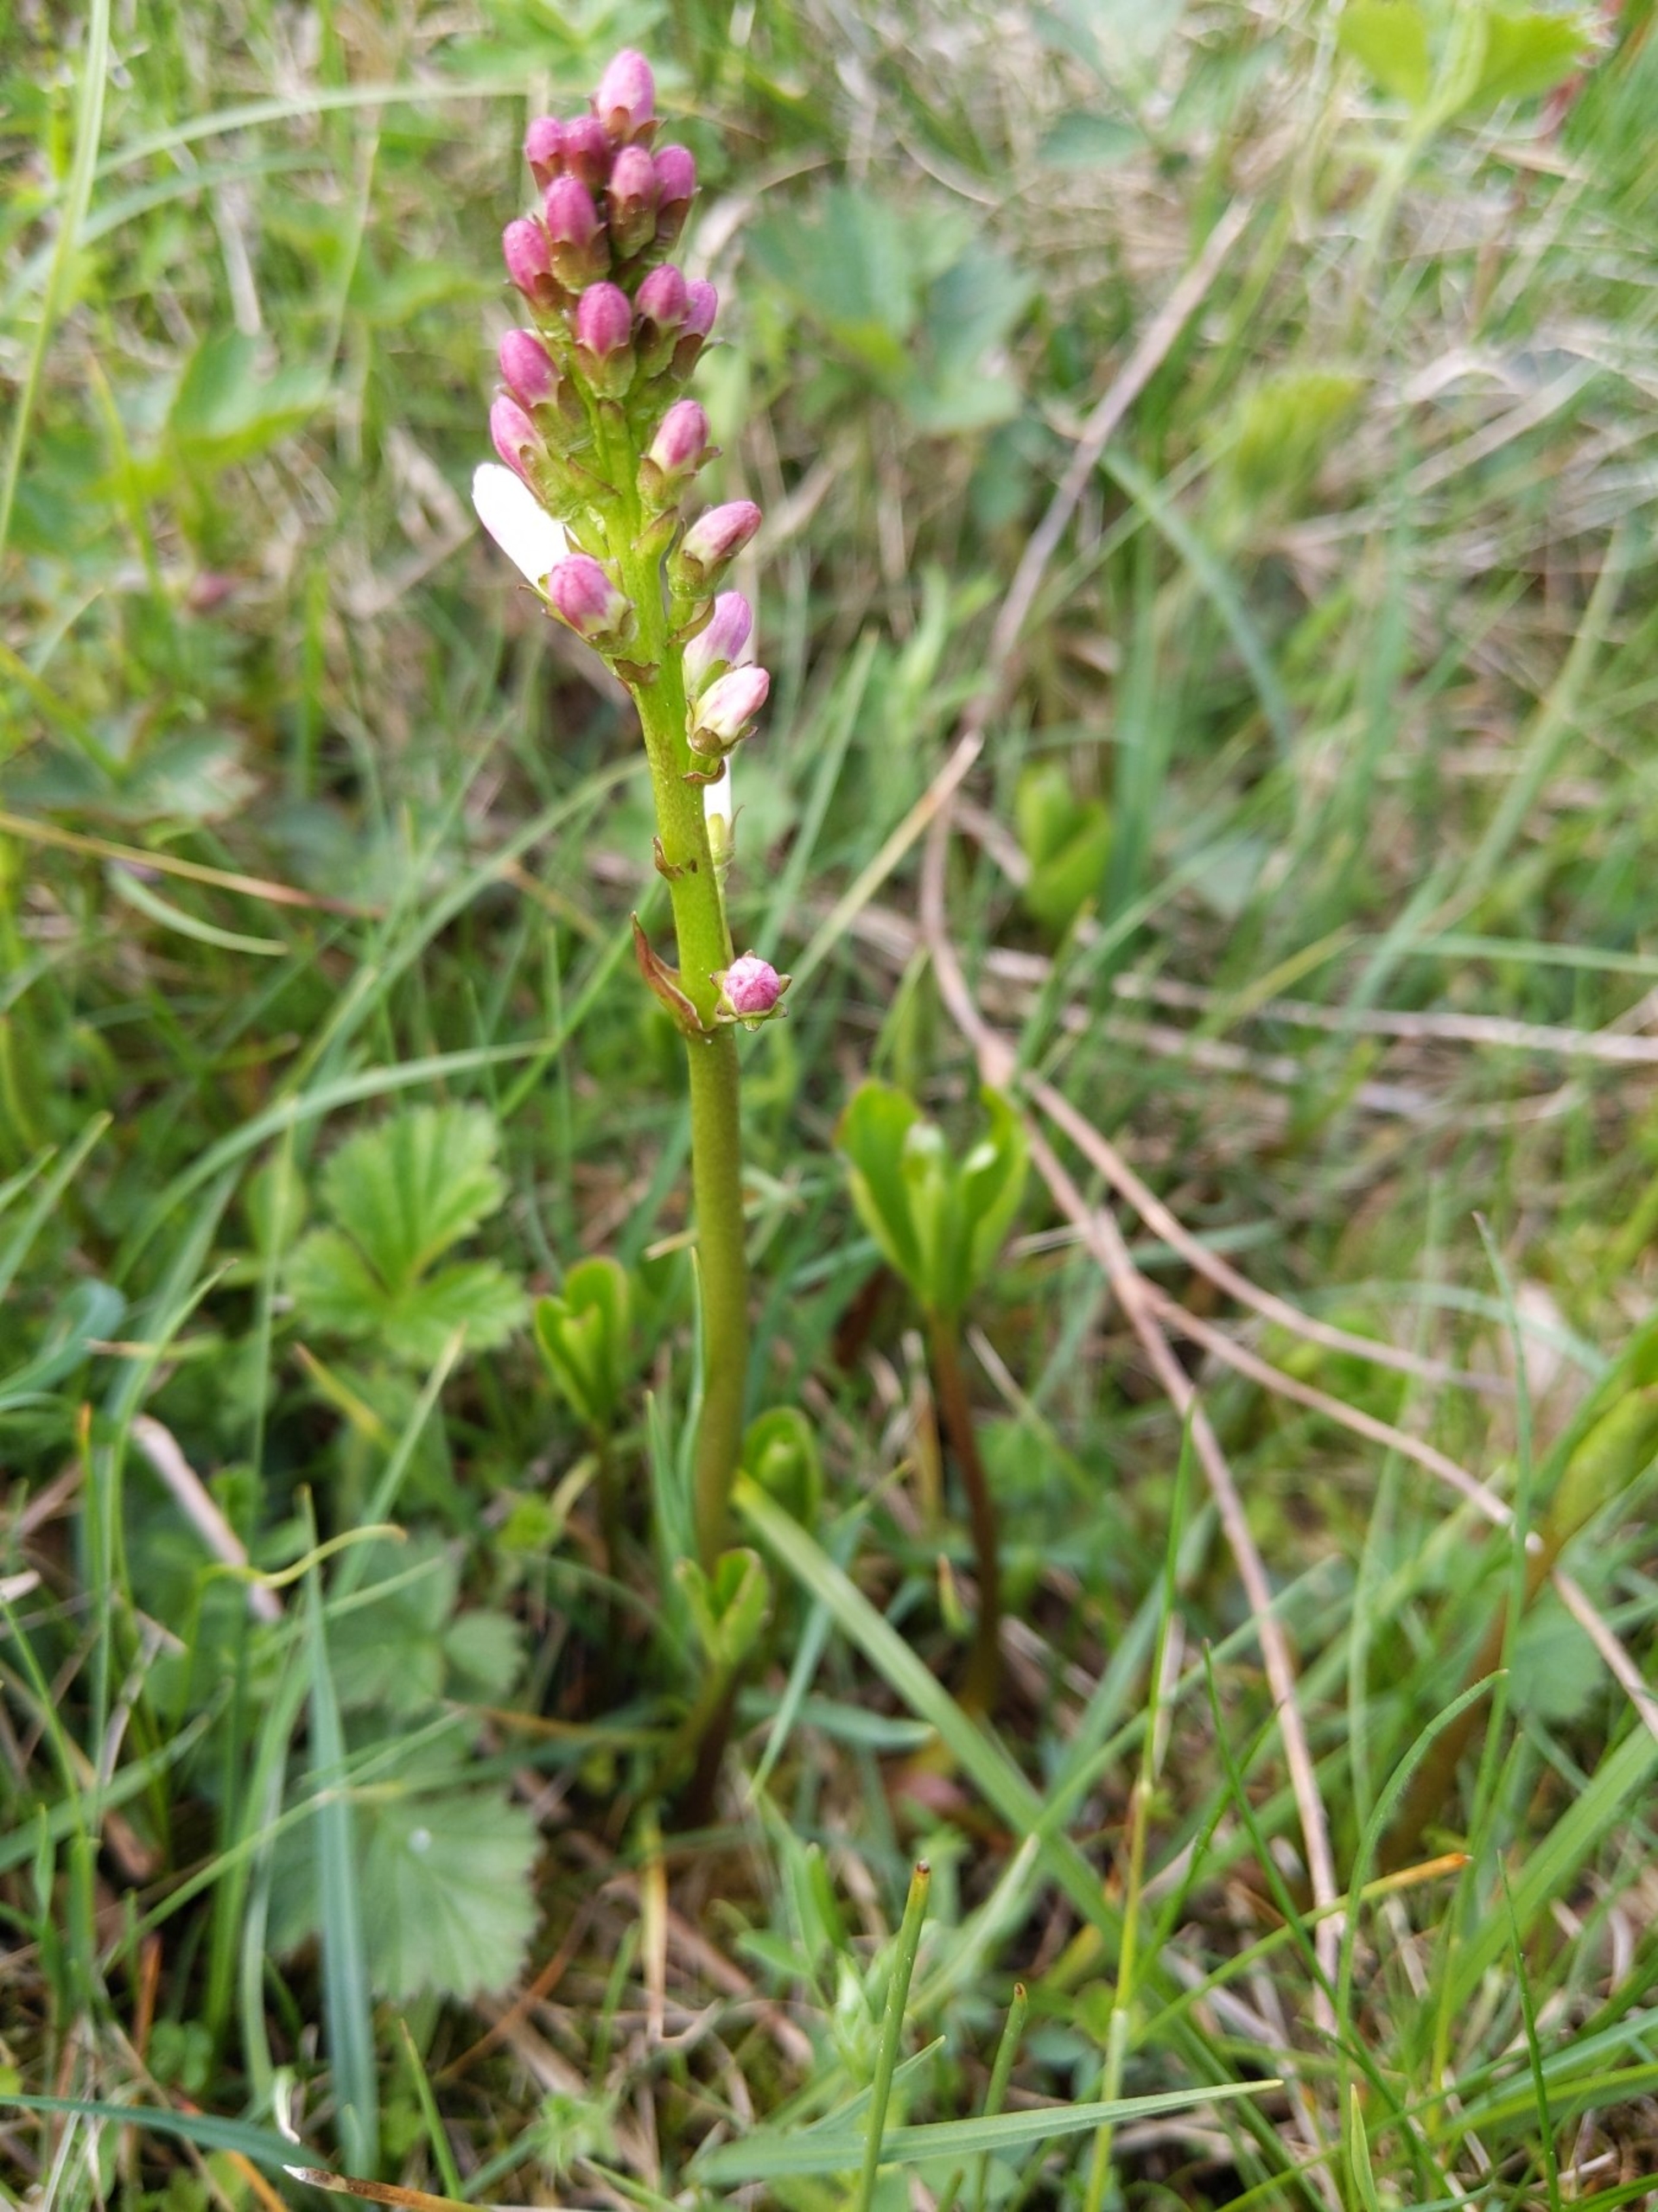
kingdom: Plantae
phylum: Tracheophyta
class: Magnoliopsida
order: Asterales
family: Menyanthaceae
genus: Menyanthes
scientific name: Menyanthes trifoliata
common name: Bukkeblad
